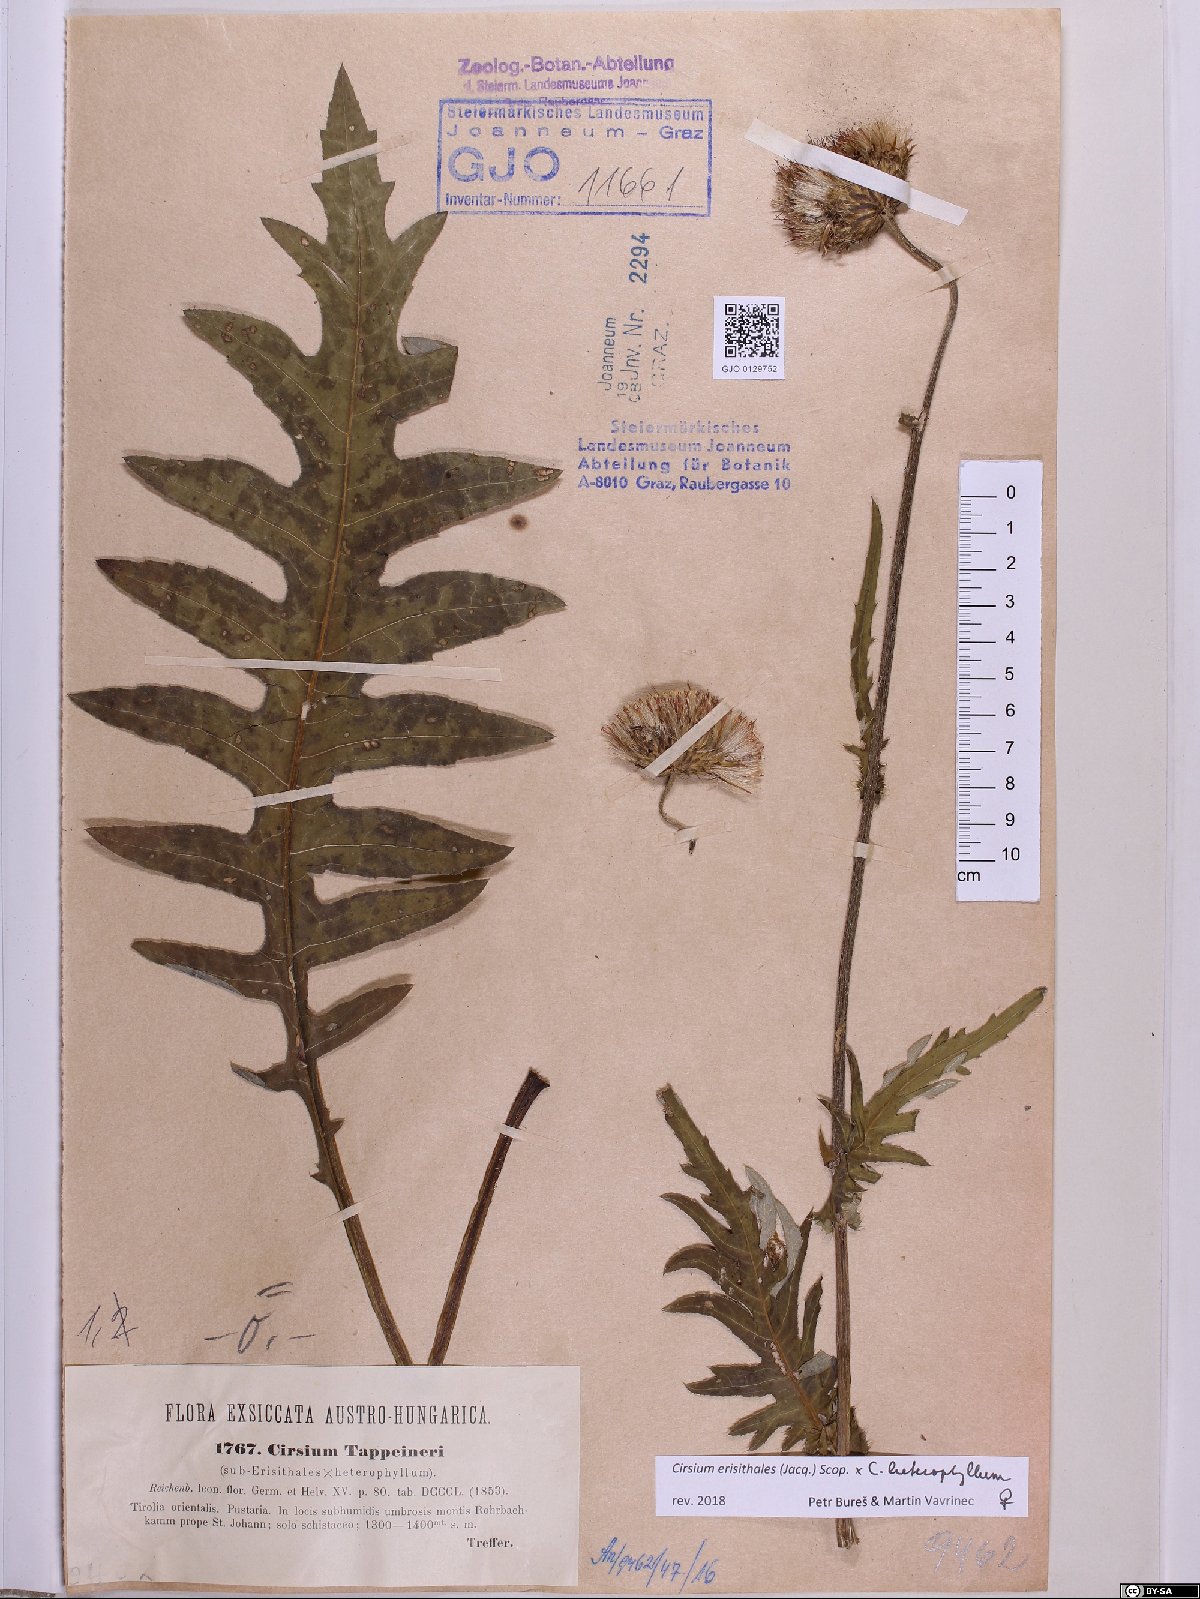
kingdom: Plantae
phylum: Tracheophyta
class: Magnoliopsida
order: Asterales
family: Asteraceae
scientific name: Asteraceae
